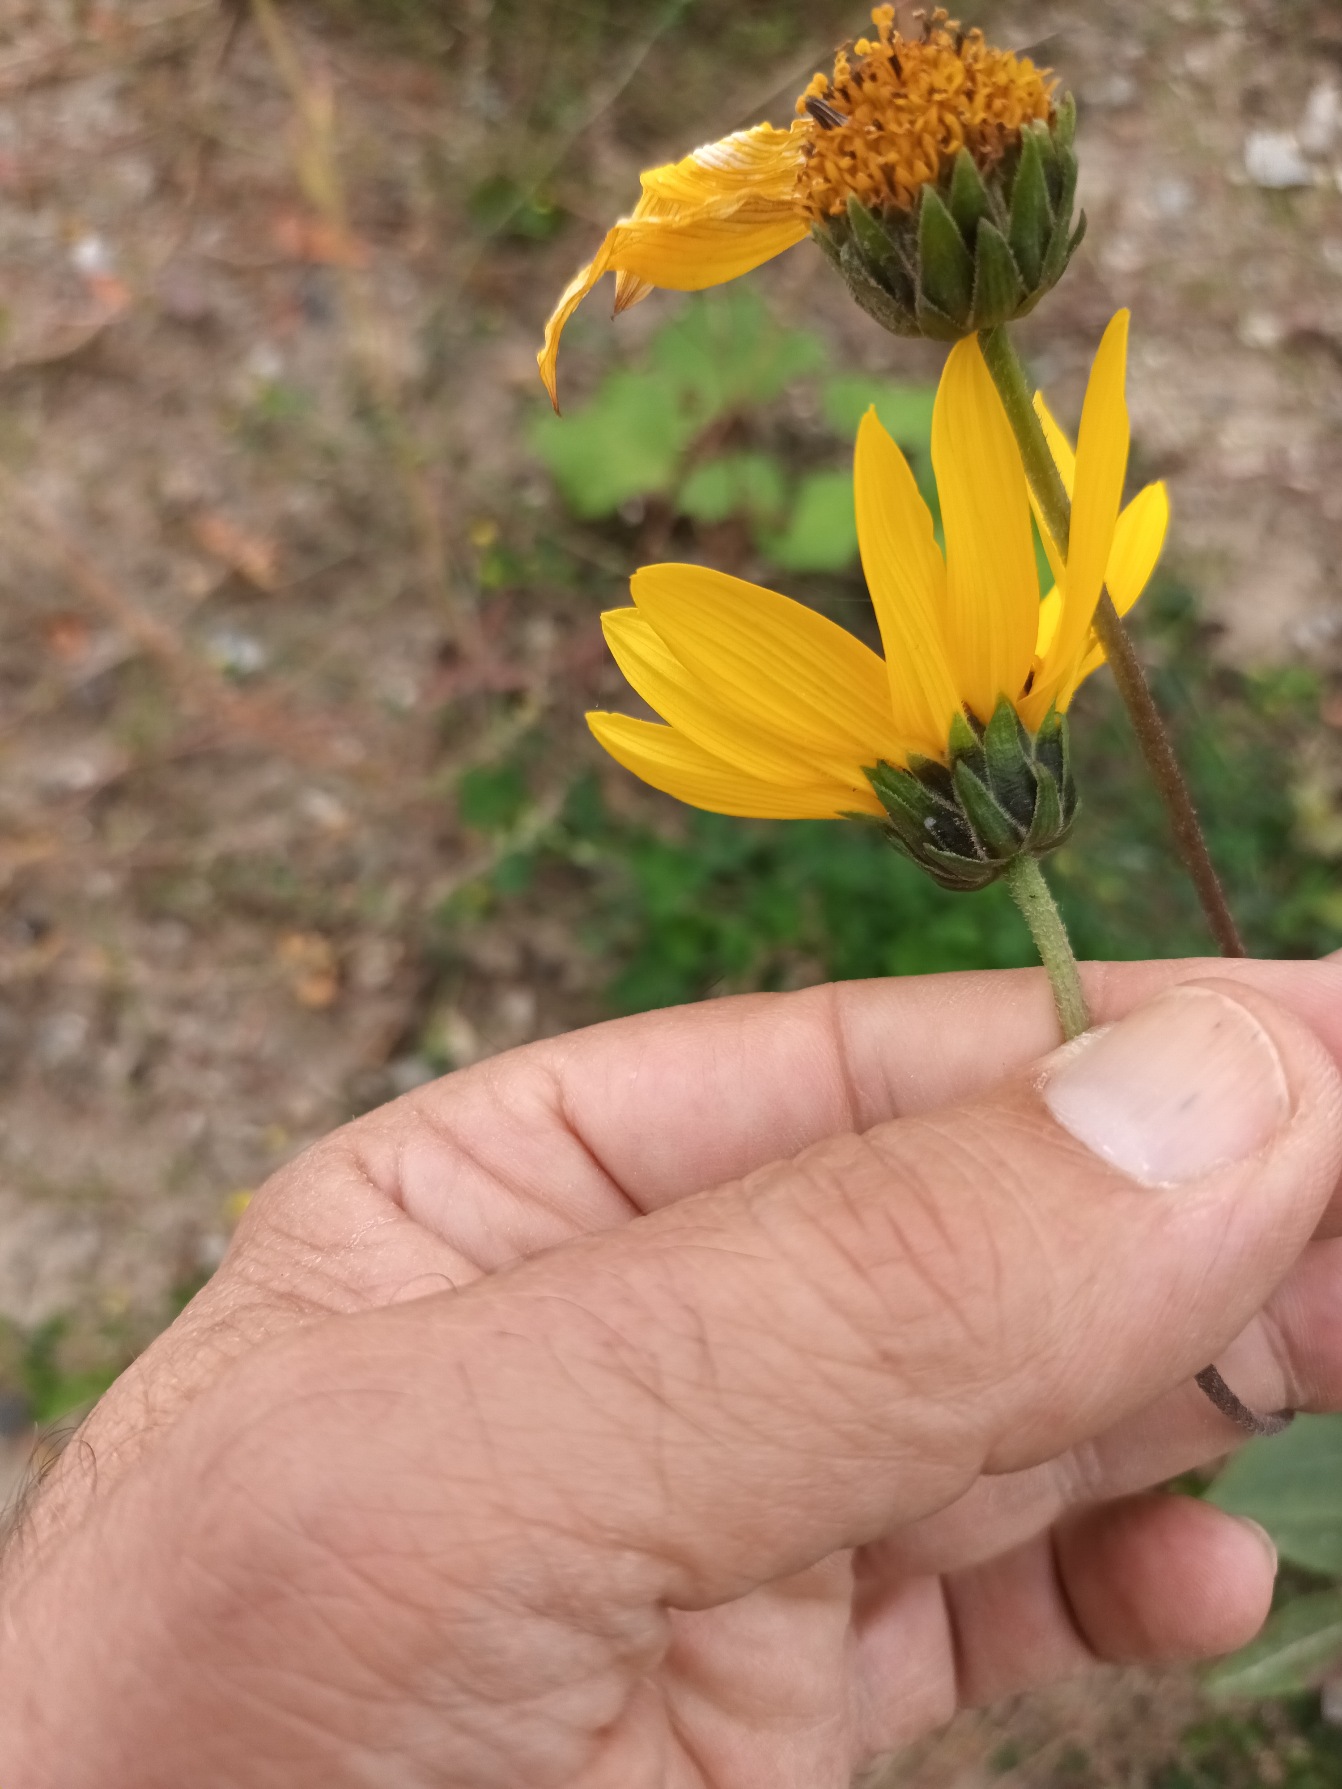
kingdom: Plantae
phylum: Tracheophyta
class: Magnoliopsida
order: Asterales
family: Asteraceae
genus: Helianthus
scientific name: Helianthus pauciflorus
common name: Staude-solsikke
